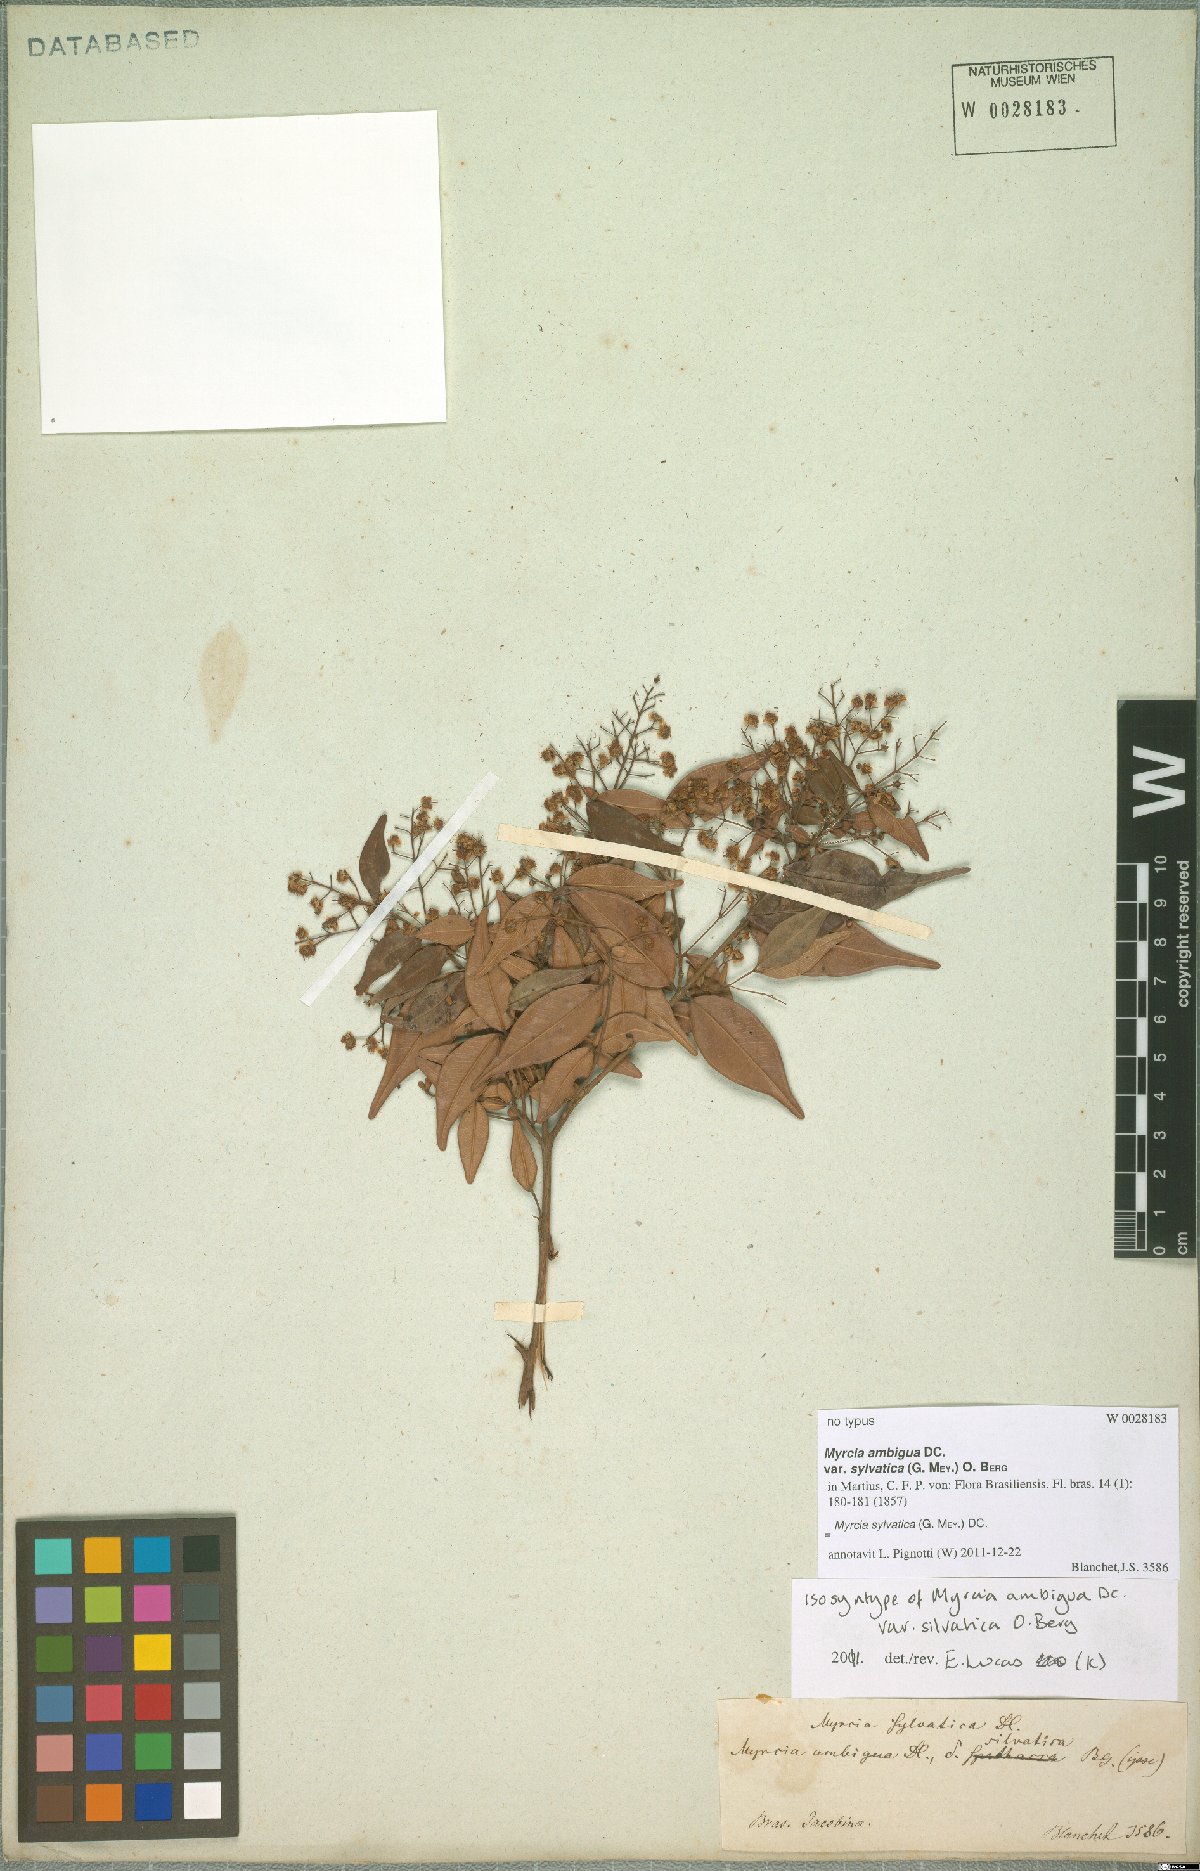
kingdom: Plantae
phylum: Tracheophyta
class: Magnoliopsida
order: Myrtales
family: Myrtaceae
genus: Myrcia
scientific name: Myrcia sylvatica
